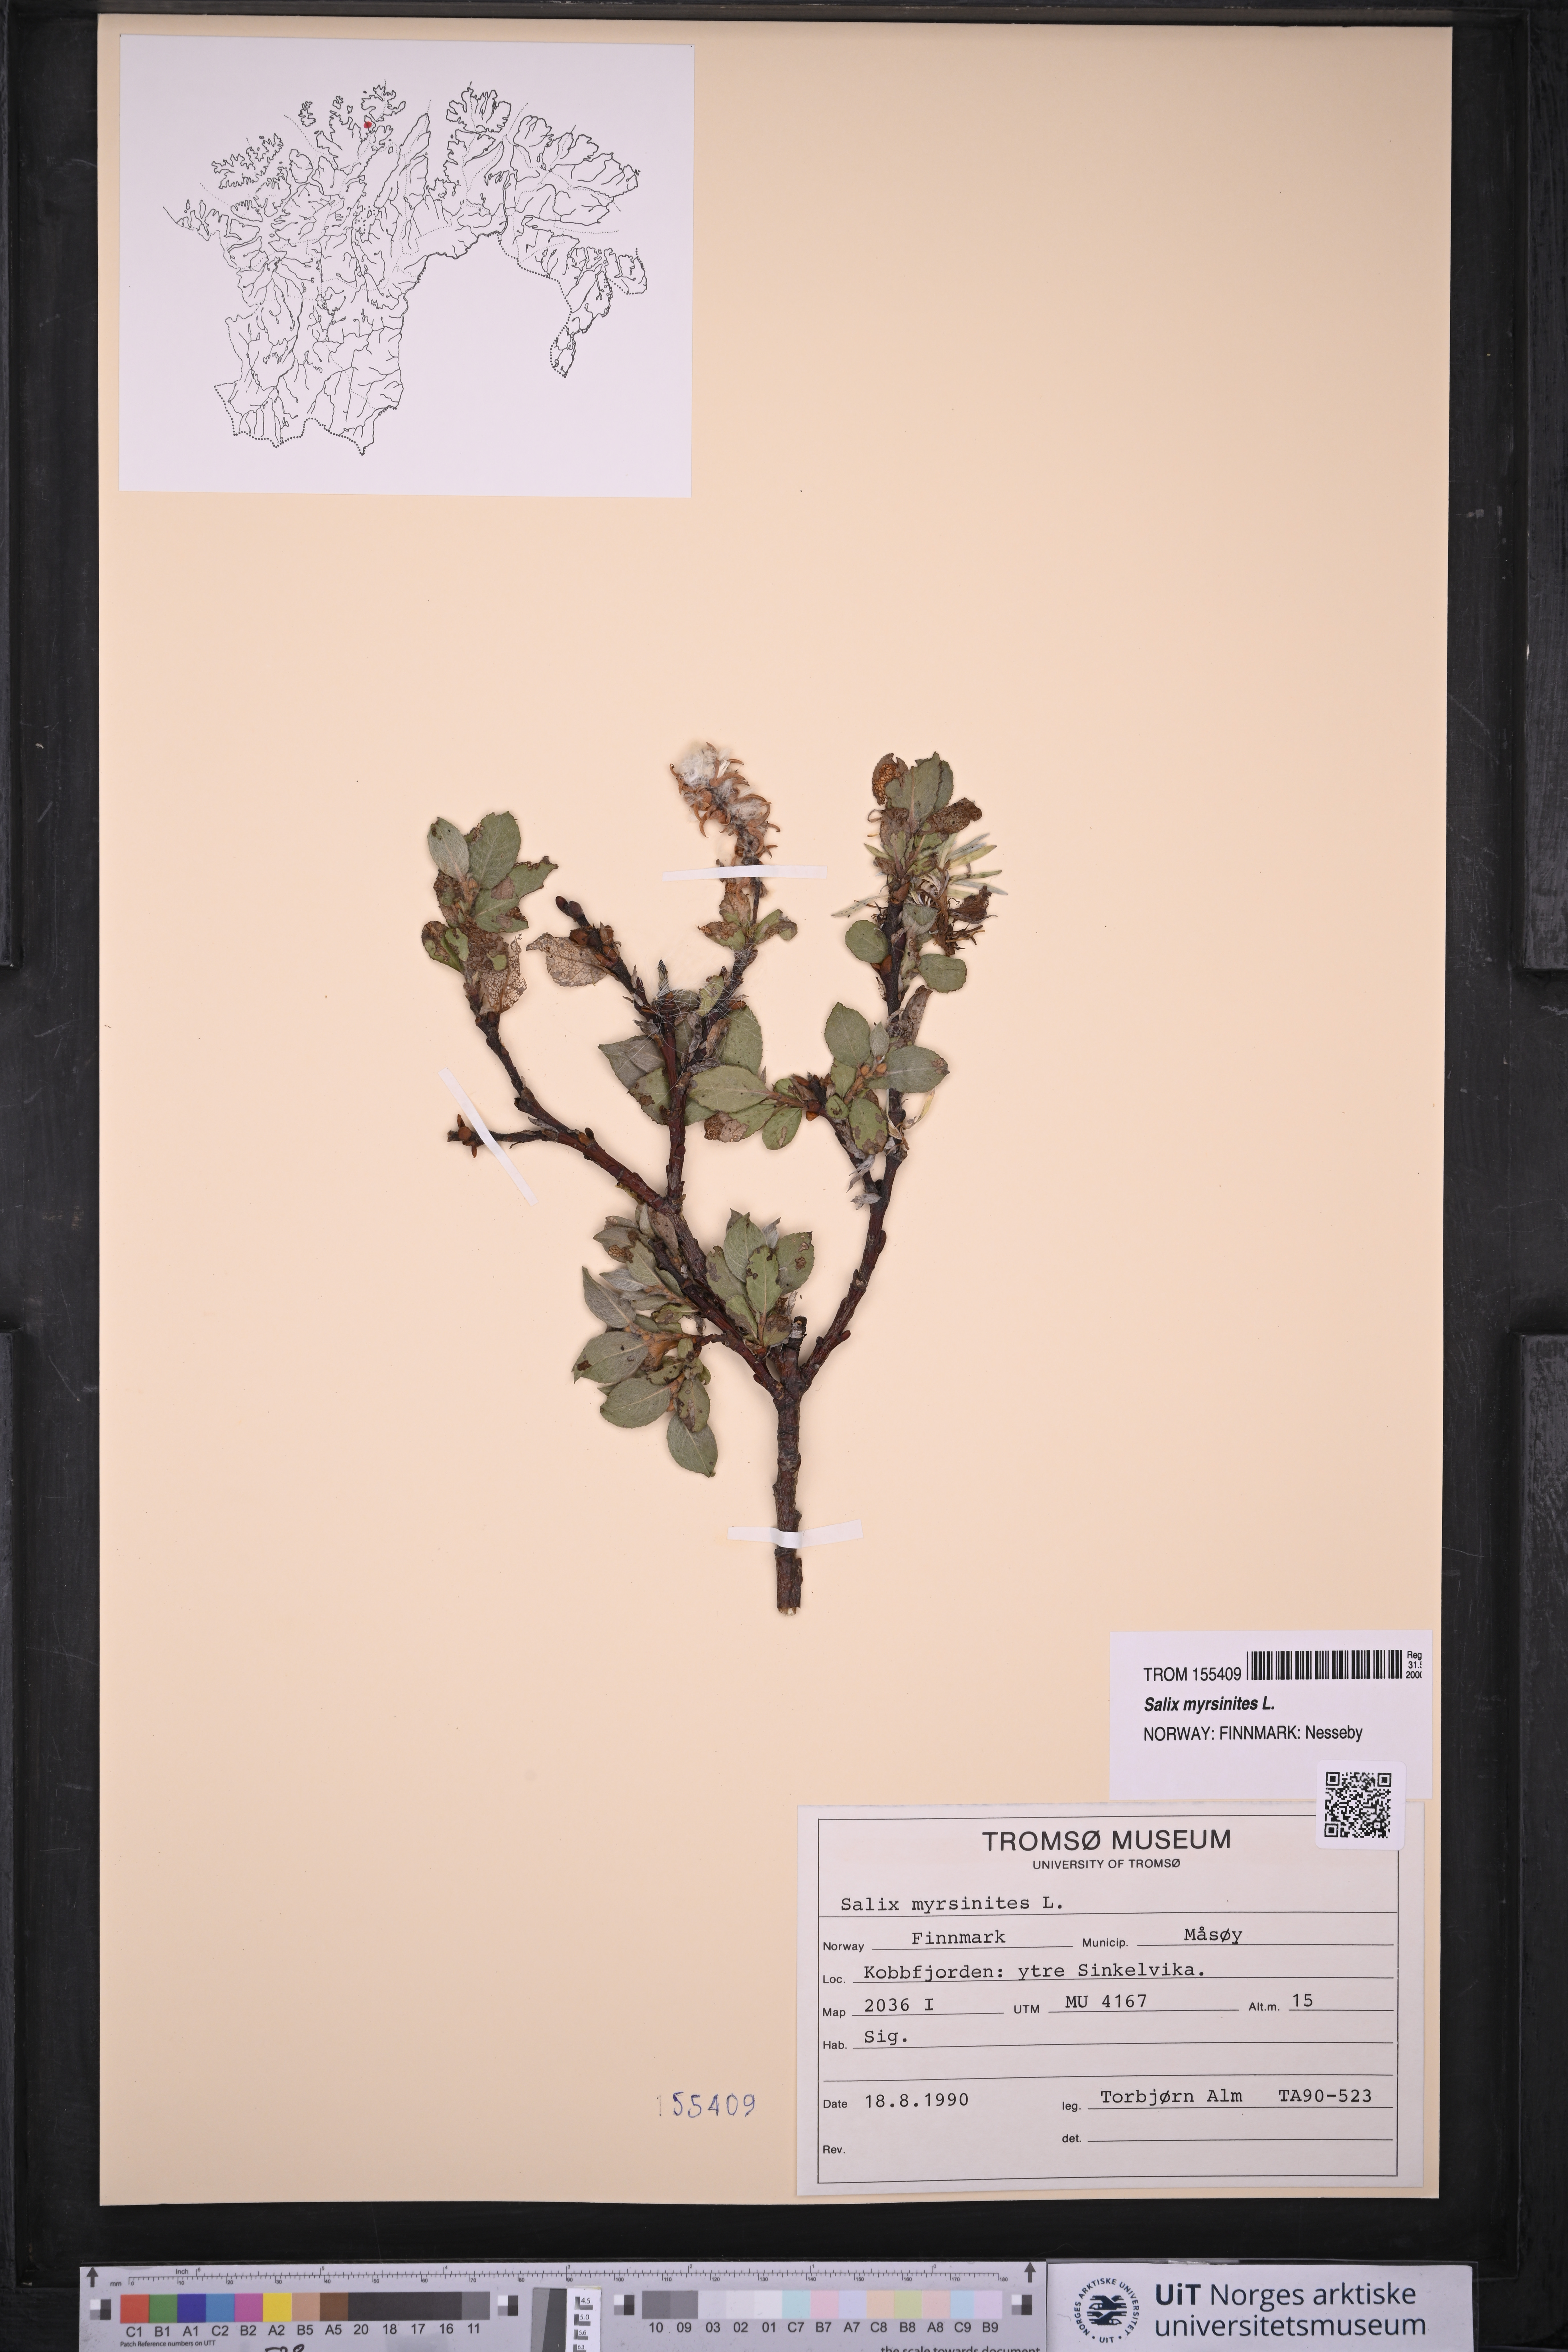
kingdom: Plantae
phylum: Tracheophyta
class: Magnoliopsida
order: Malpighiales
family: Salicaceae
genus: Salix
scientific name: Salix myrsinites
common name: Myrtle willow
